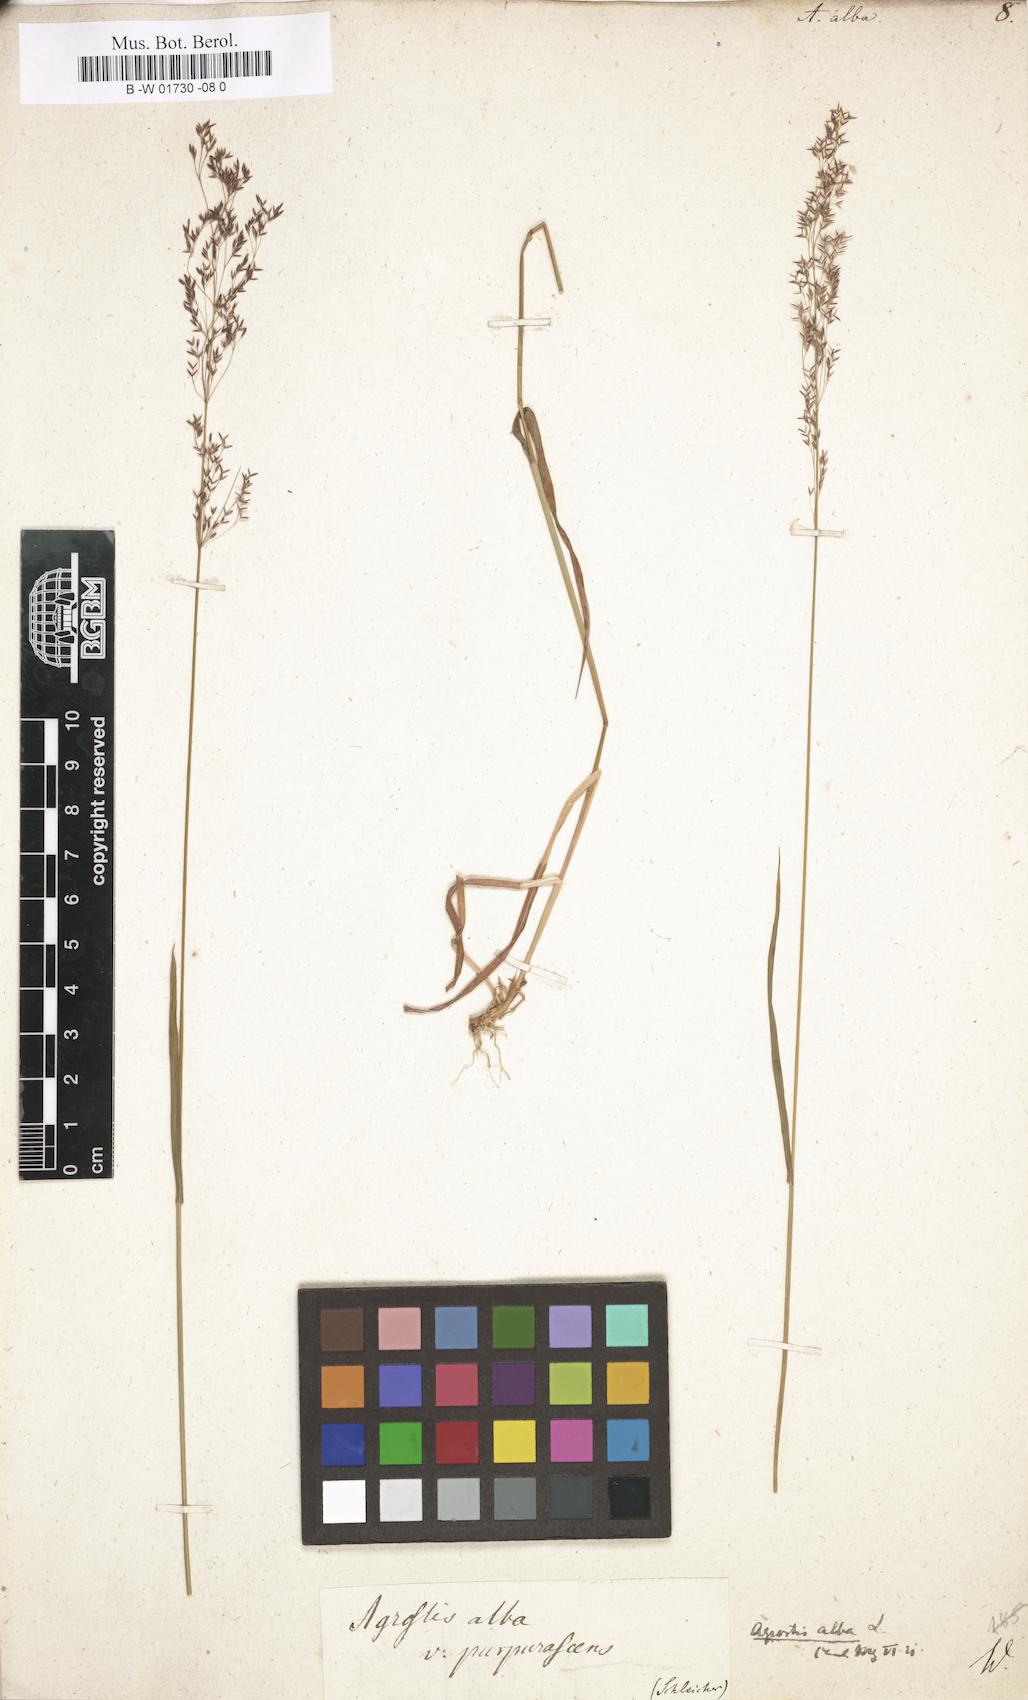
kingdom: Plantae
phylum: Tracheophyta
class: Liliopsida
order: Poales
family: Poaceae
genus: Poa
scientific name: Poa nemoralis
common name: Wood bluegrass
